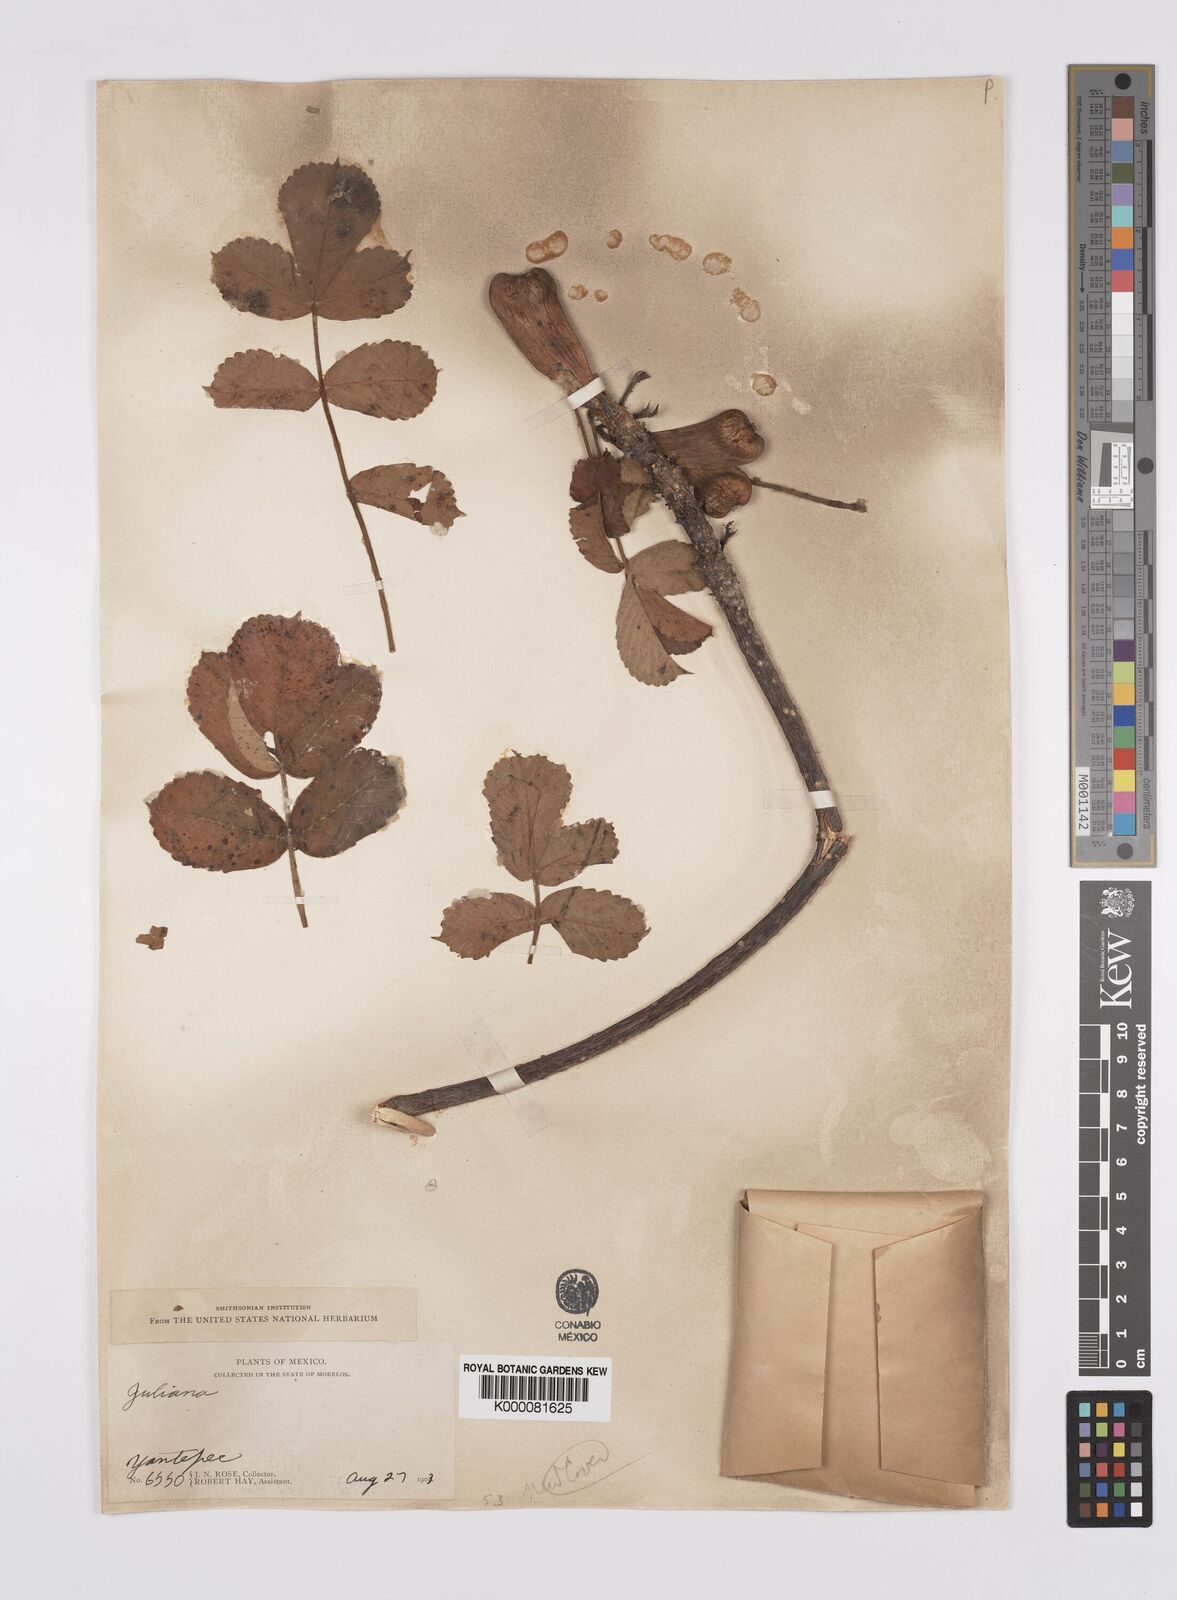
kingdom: Plantae
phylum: Tracheophyta
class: Magnoliopsida
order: Sapindales
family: Anacardiaceae
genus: Amphipterygium
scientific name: Amphipterygium
